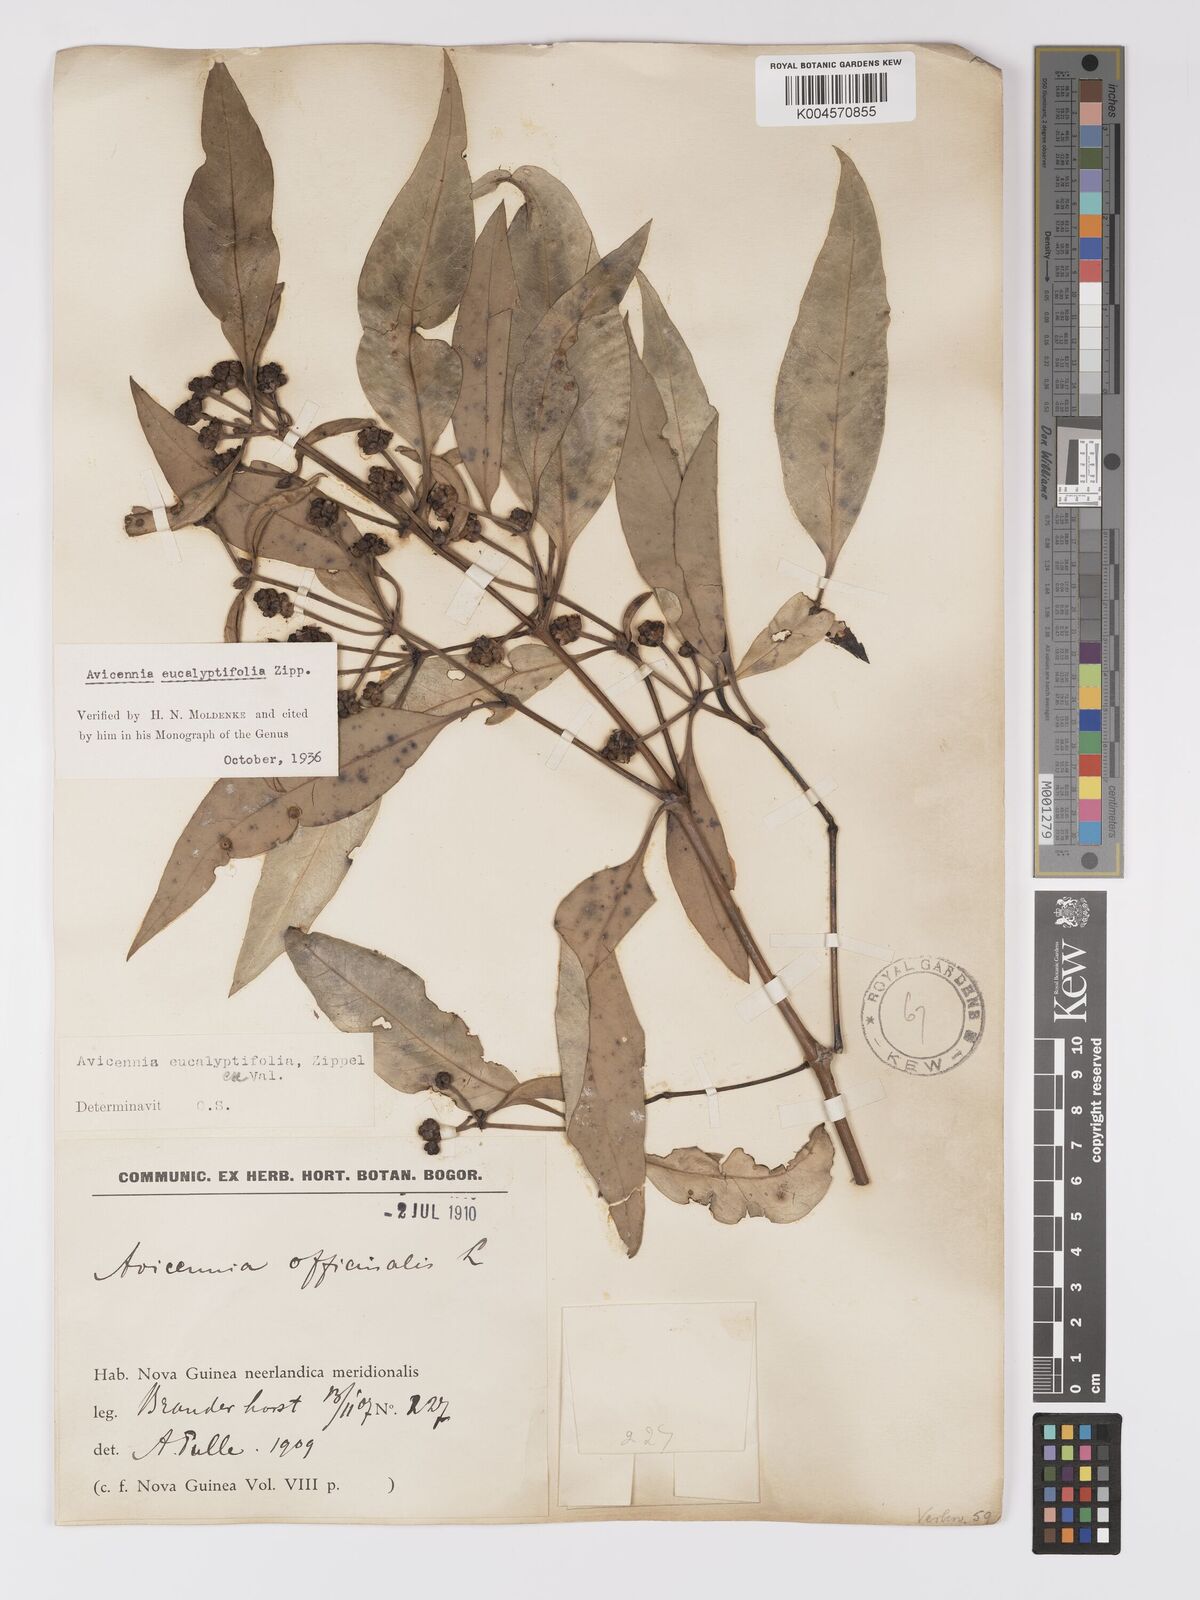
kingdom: Plantae
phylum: Tracheophyta
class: Magnoliopsida
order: Lamiales
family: Acanthaceae
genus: Avicennia
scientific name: Avicennia marina
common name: Gray mangrove
